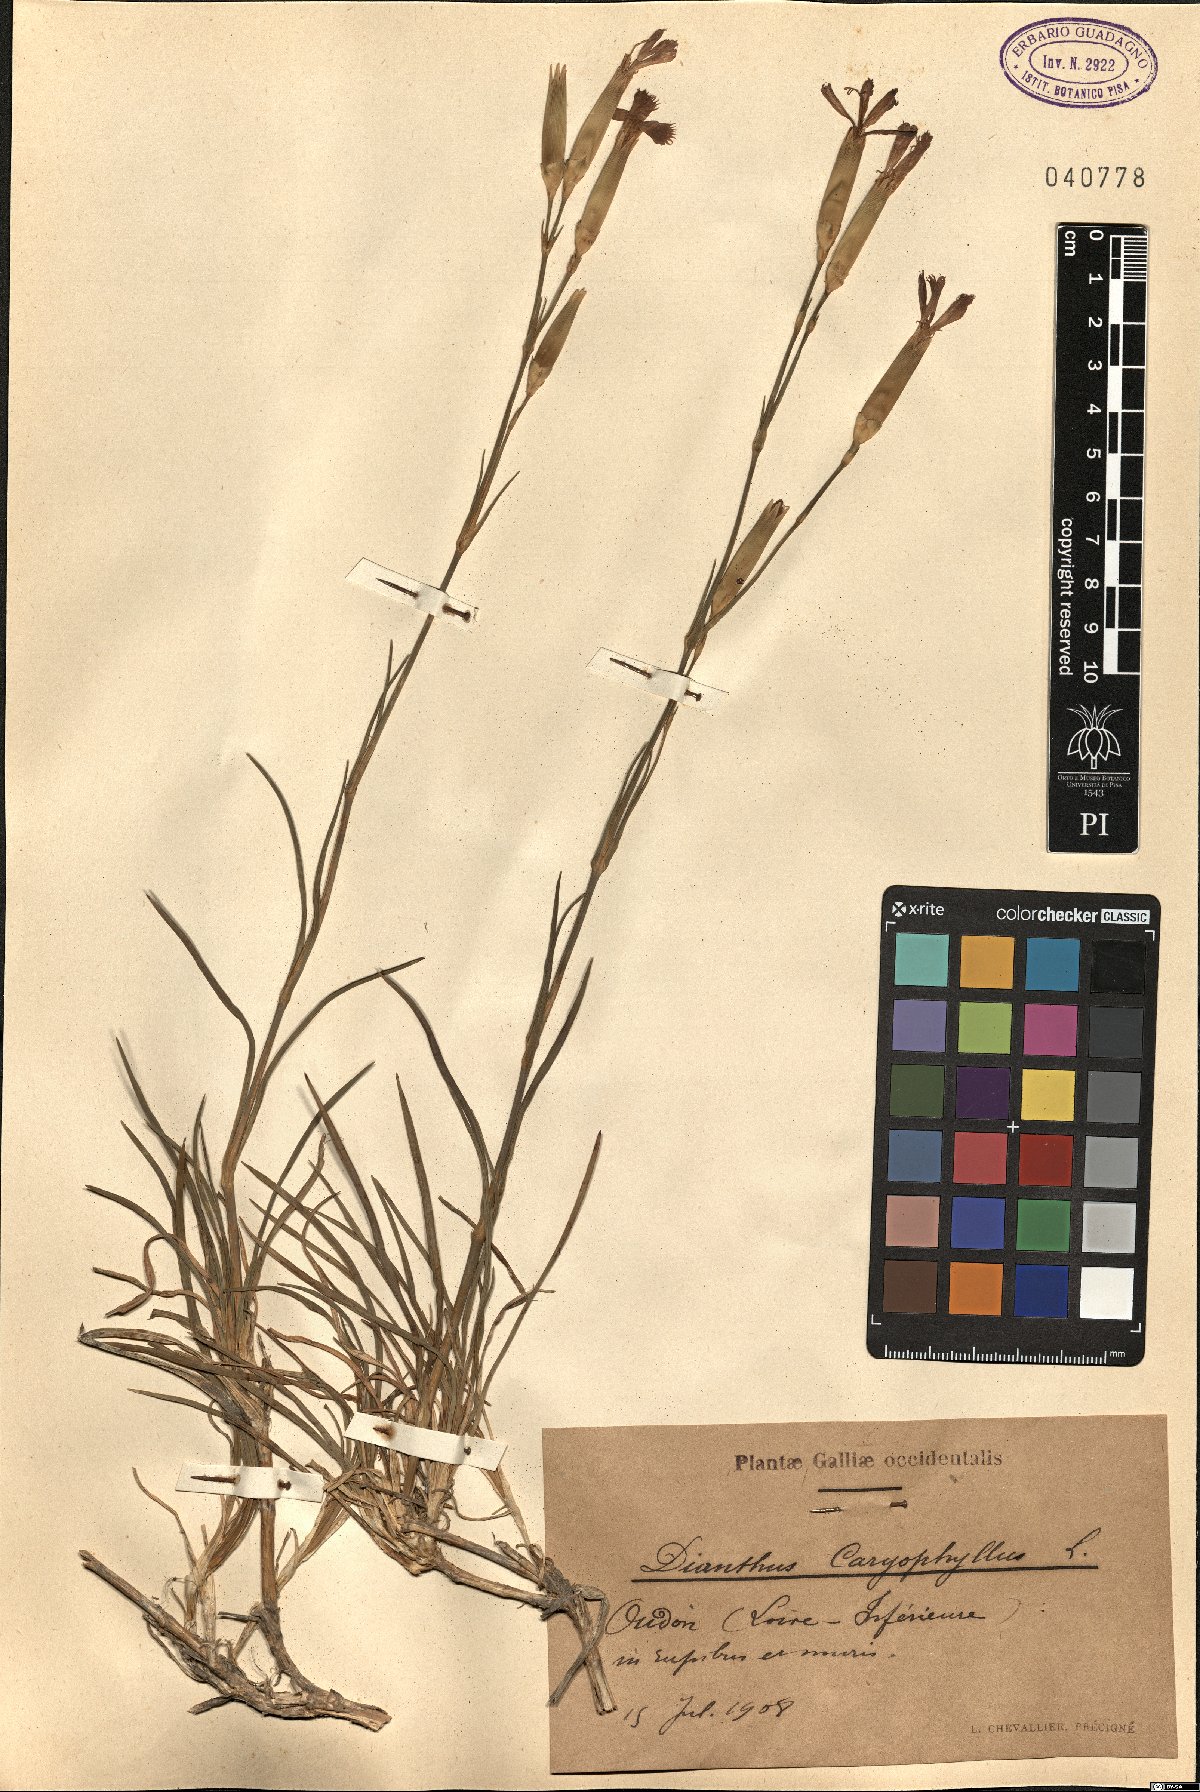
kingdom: Plantae
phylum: Tracheophyta
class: Magnoliopsida
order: Caryophyllales
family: Caryophyllaceae
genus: Dianthus
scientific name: Dianthus caryophyllus
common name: Clove pink
